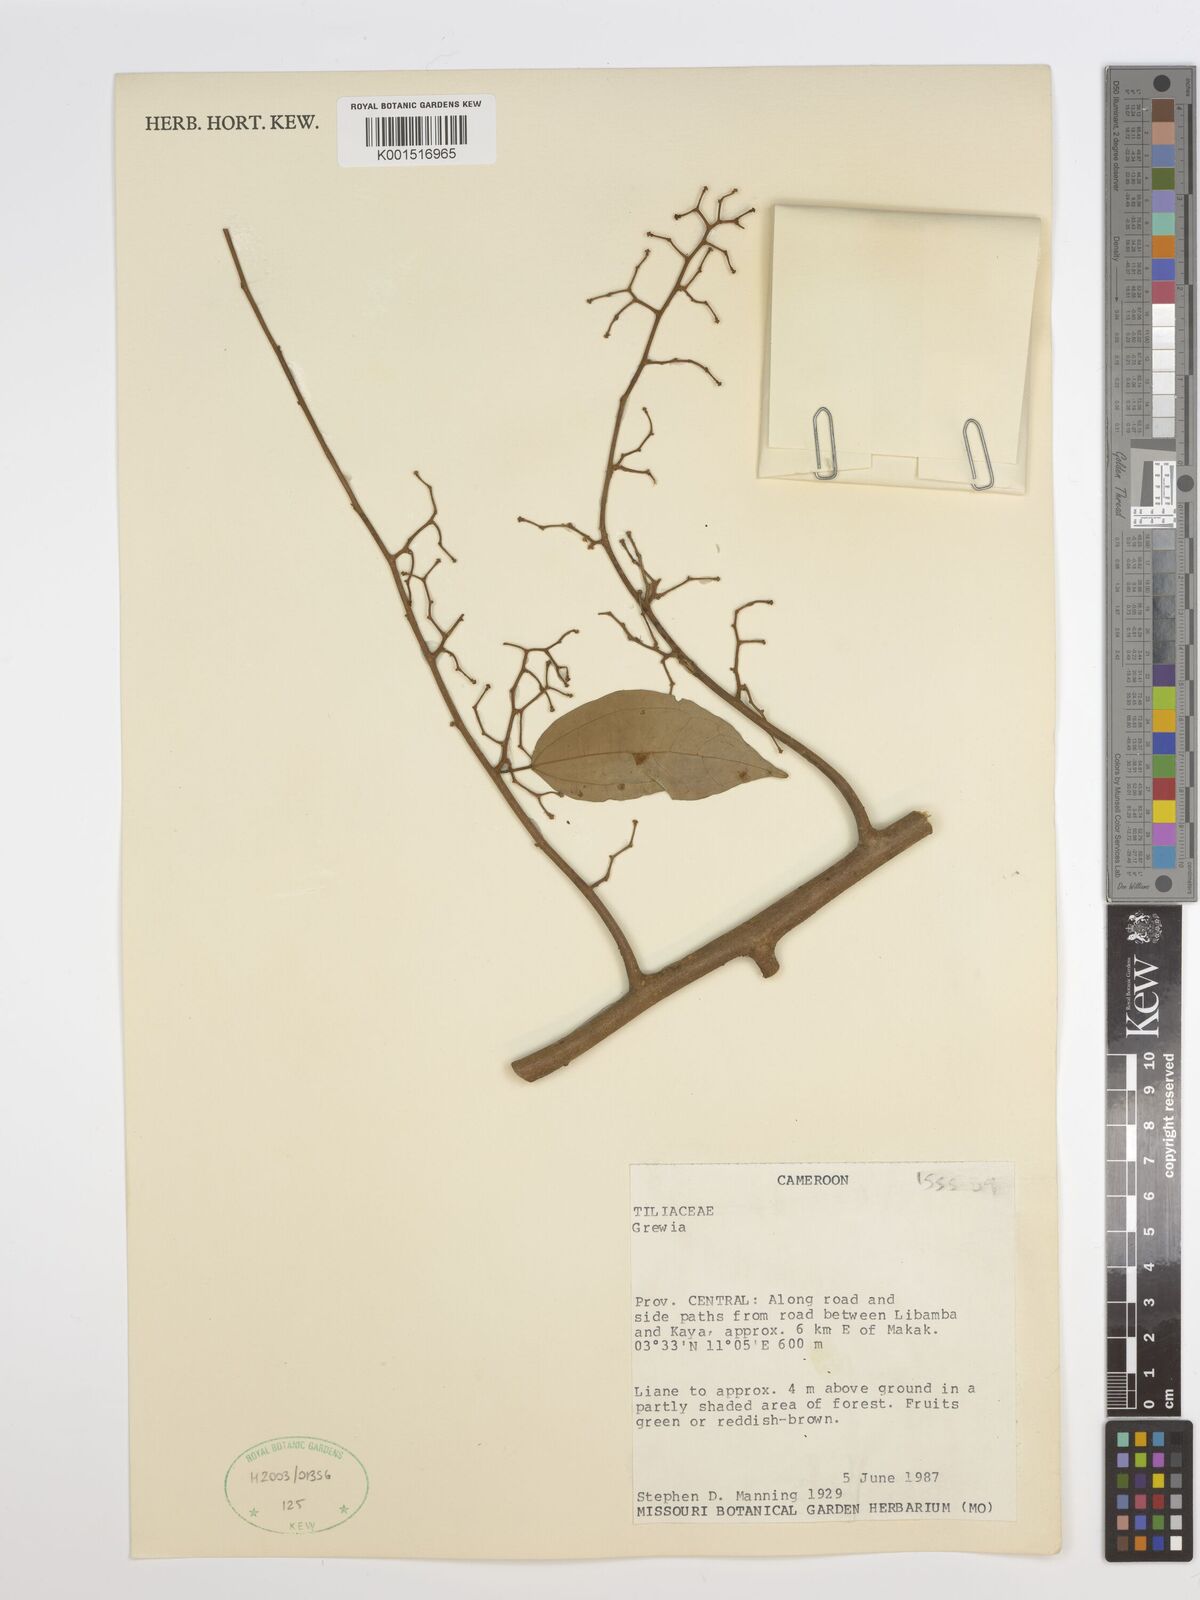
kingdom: Plantae
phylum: Tracheophyta
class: Magnoliopsida
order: Malvales
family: Malvaceae
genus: Grewia
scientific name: Grewia
